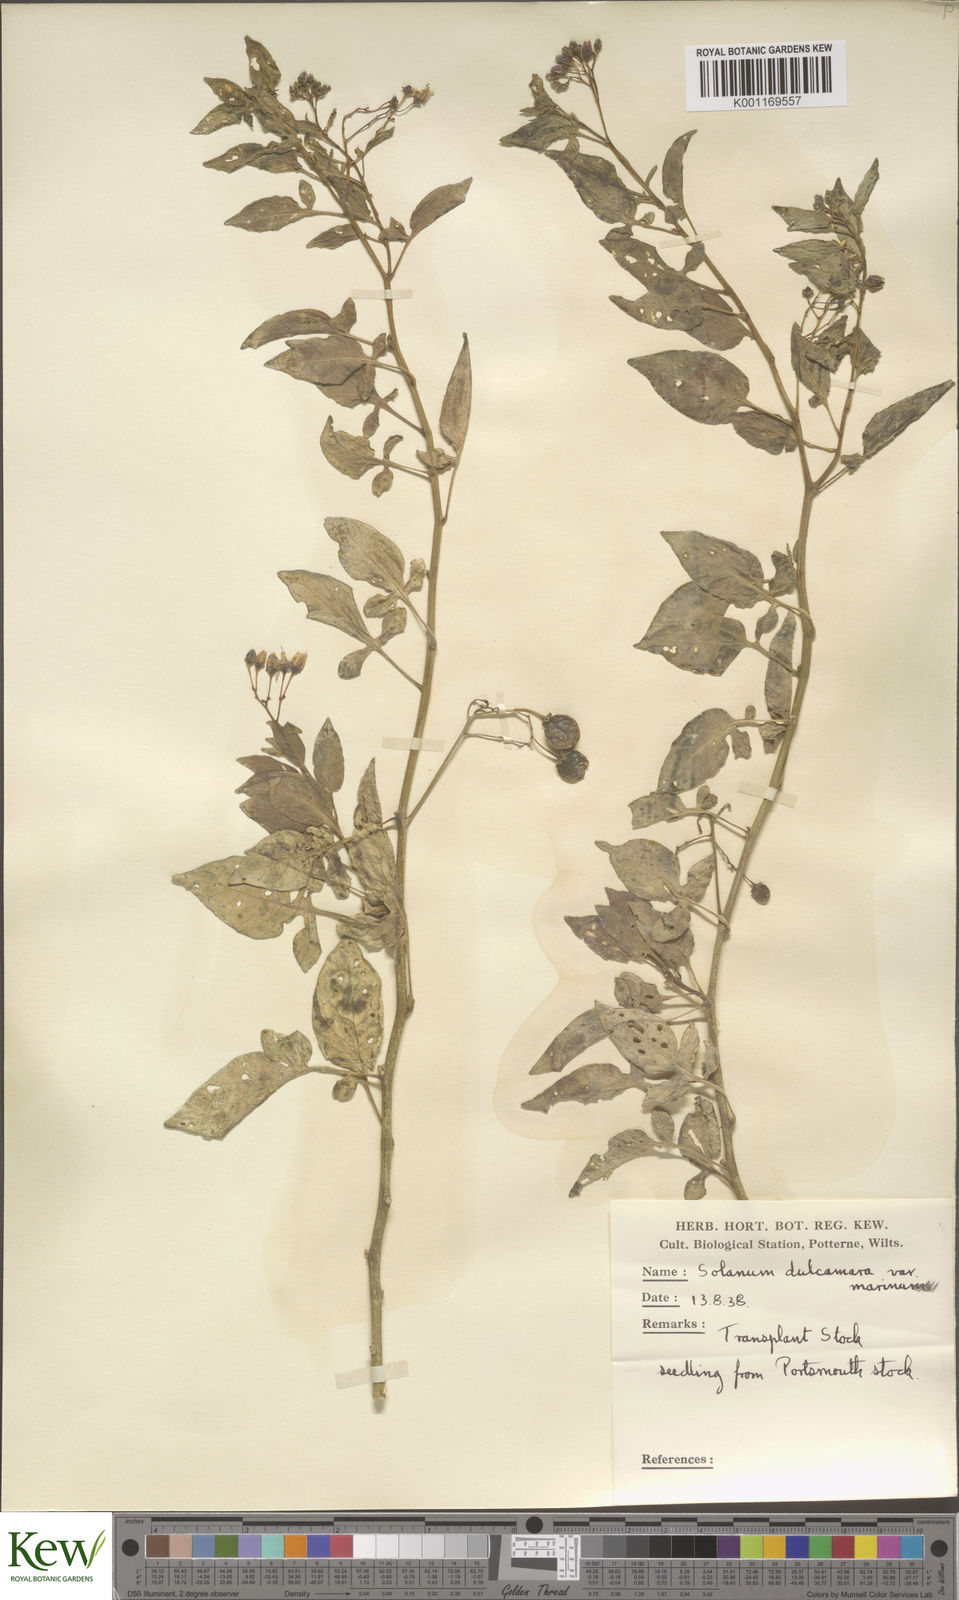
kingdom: Plantae
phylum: Tracheophyta
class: Magnoliopsida
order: Solanales
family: Solanaceae
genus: Solanum
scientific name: Solanum dulcamara
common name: Climbing nightshade
